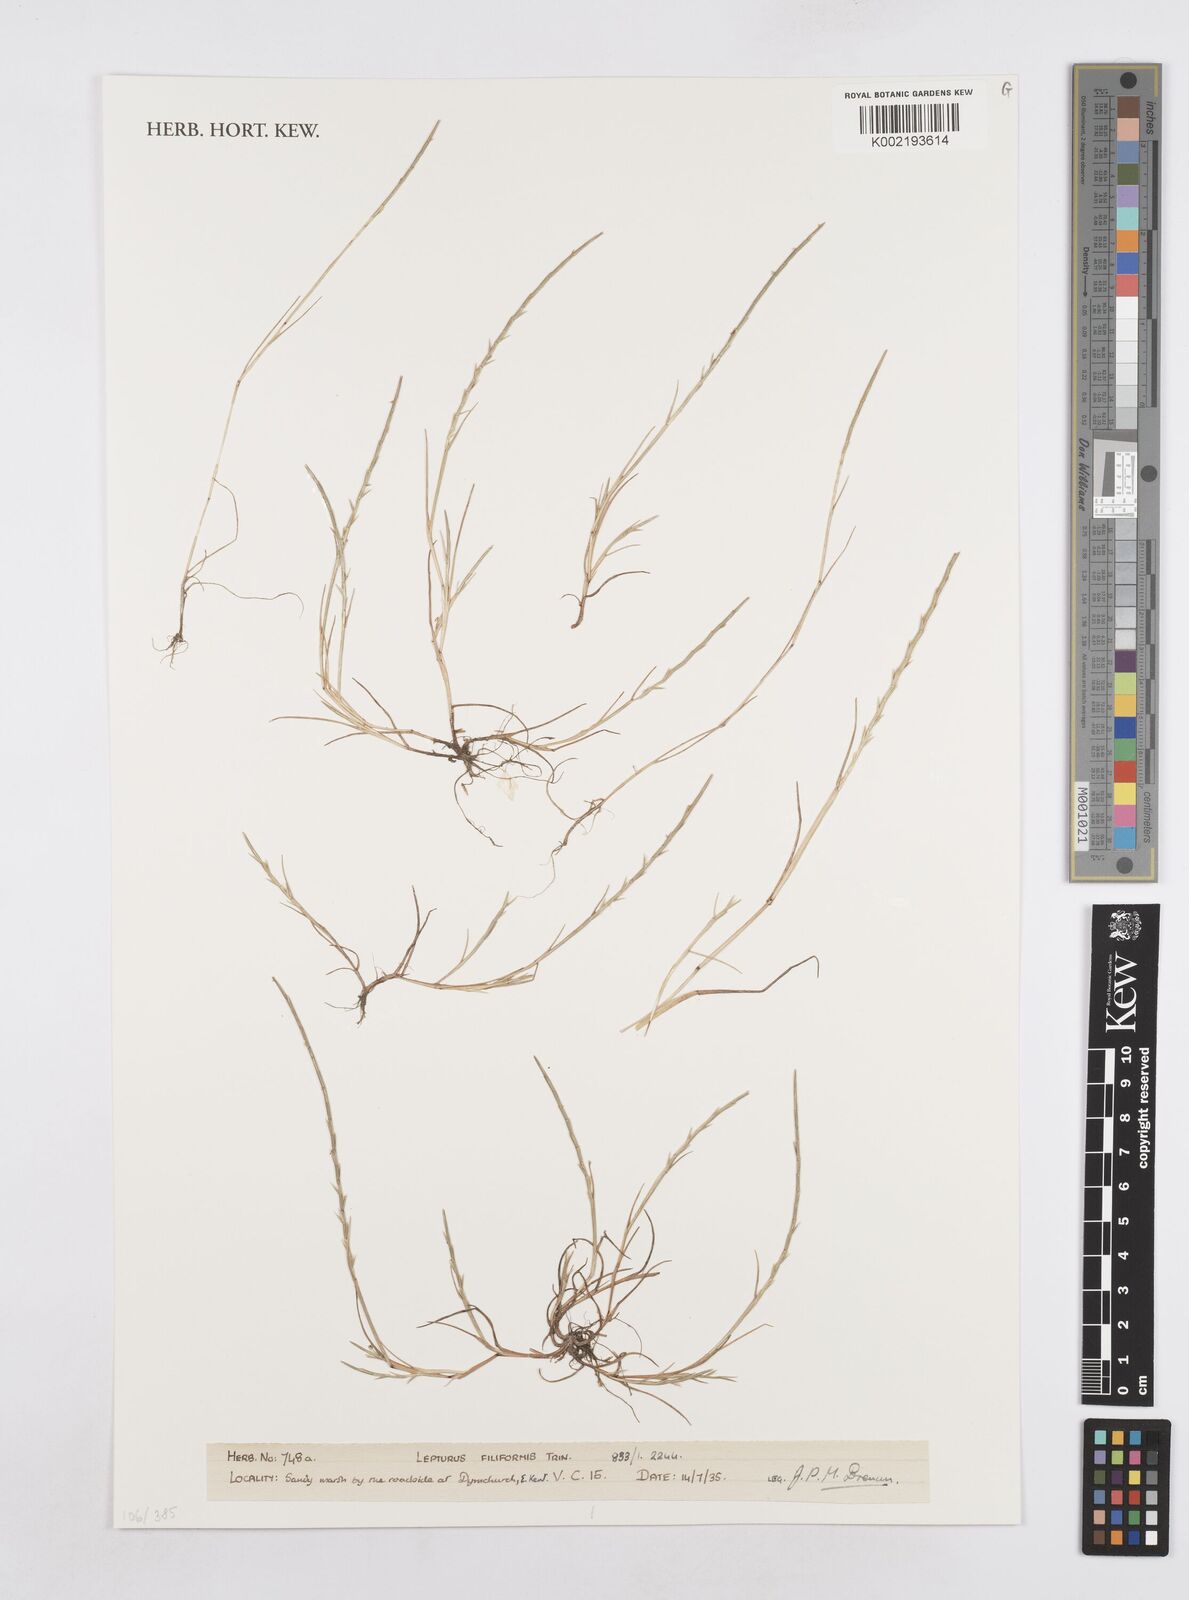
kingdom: Plantae
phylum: Tracheophyta
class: Liliopsida
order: Poales
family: Poaceae
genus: Parapholis
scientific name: Parapholis filiformis
